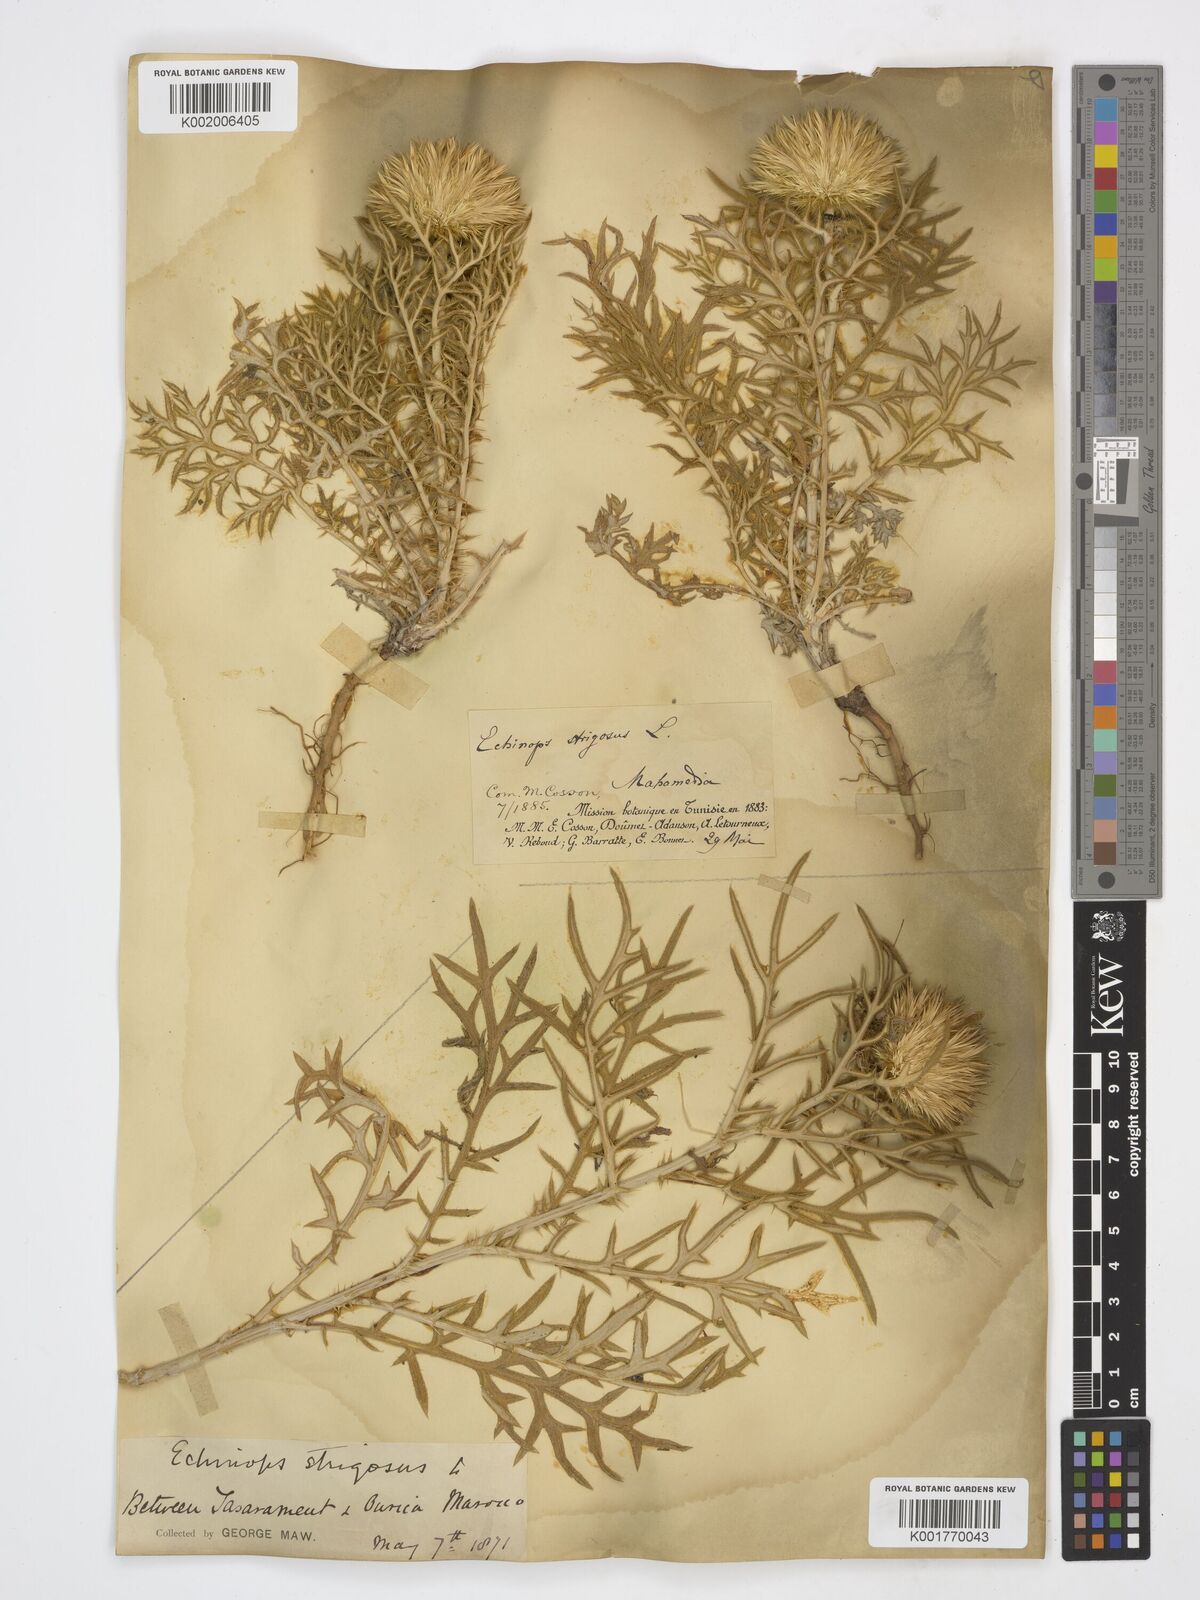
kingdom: Plantae
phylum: Tracheophyta
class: Magnoliopsida
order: Asterales
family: Asteraceae
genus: Echinops
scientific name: Echinops strigosus
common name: Rough-leaf globe thistle
